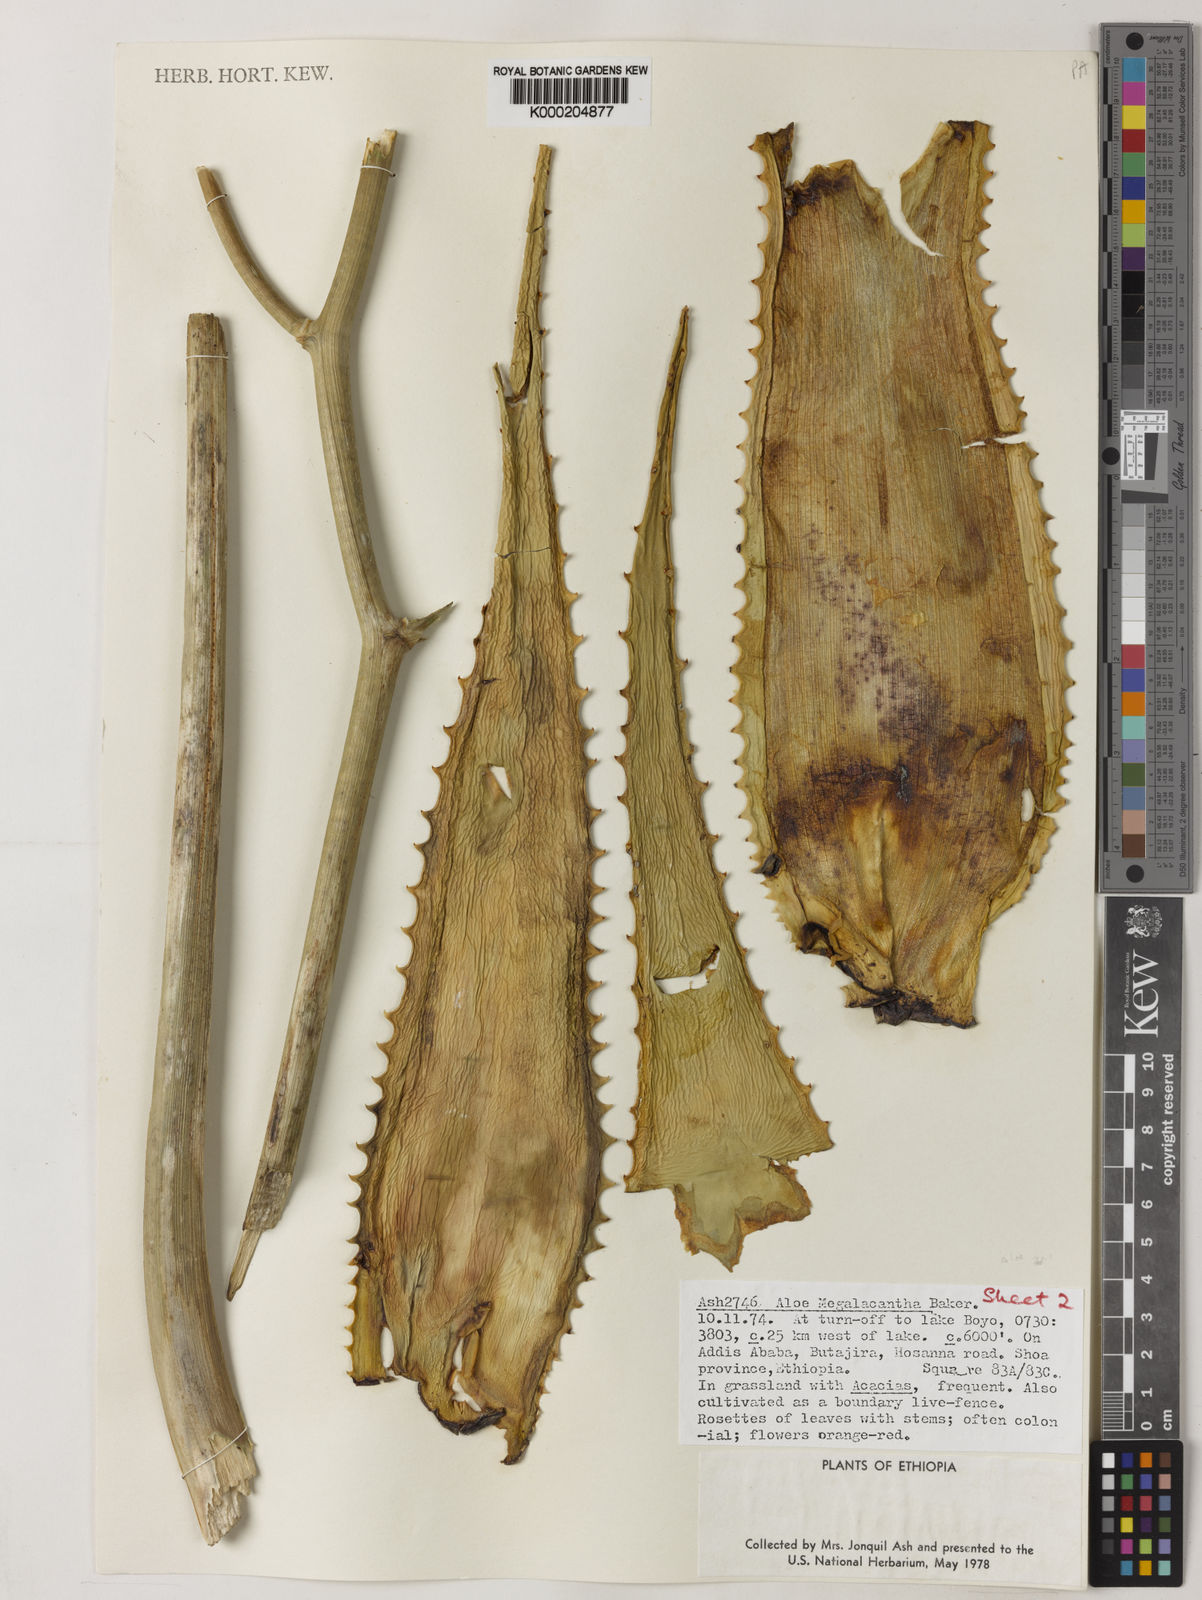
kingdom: Plantae
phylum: Tracheophyta
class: Liliopsida
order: Asparagales
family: Asphodelaceae
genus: Aloe
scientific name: Aloe gilbertii
